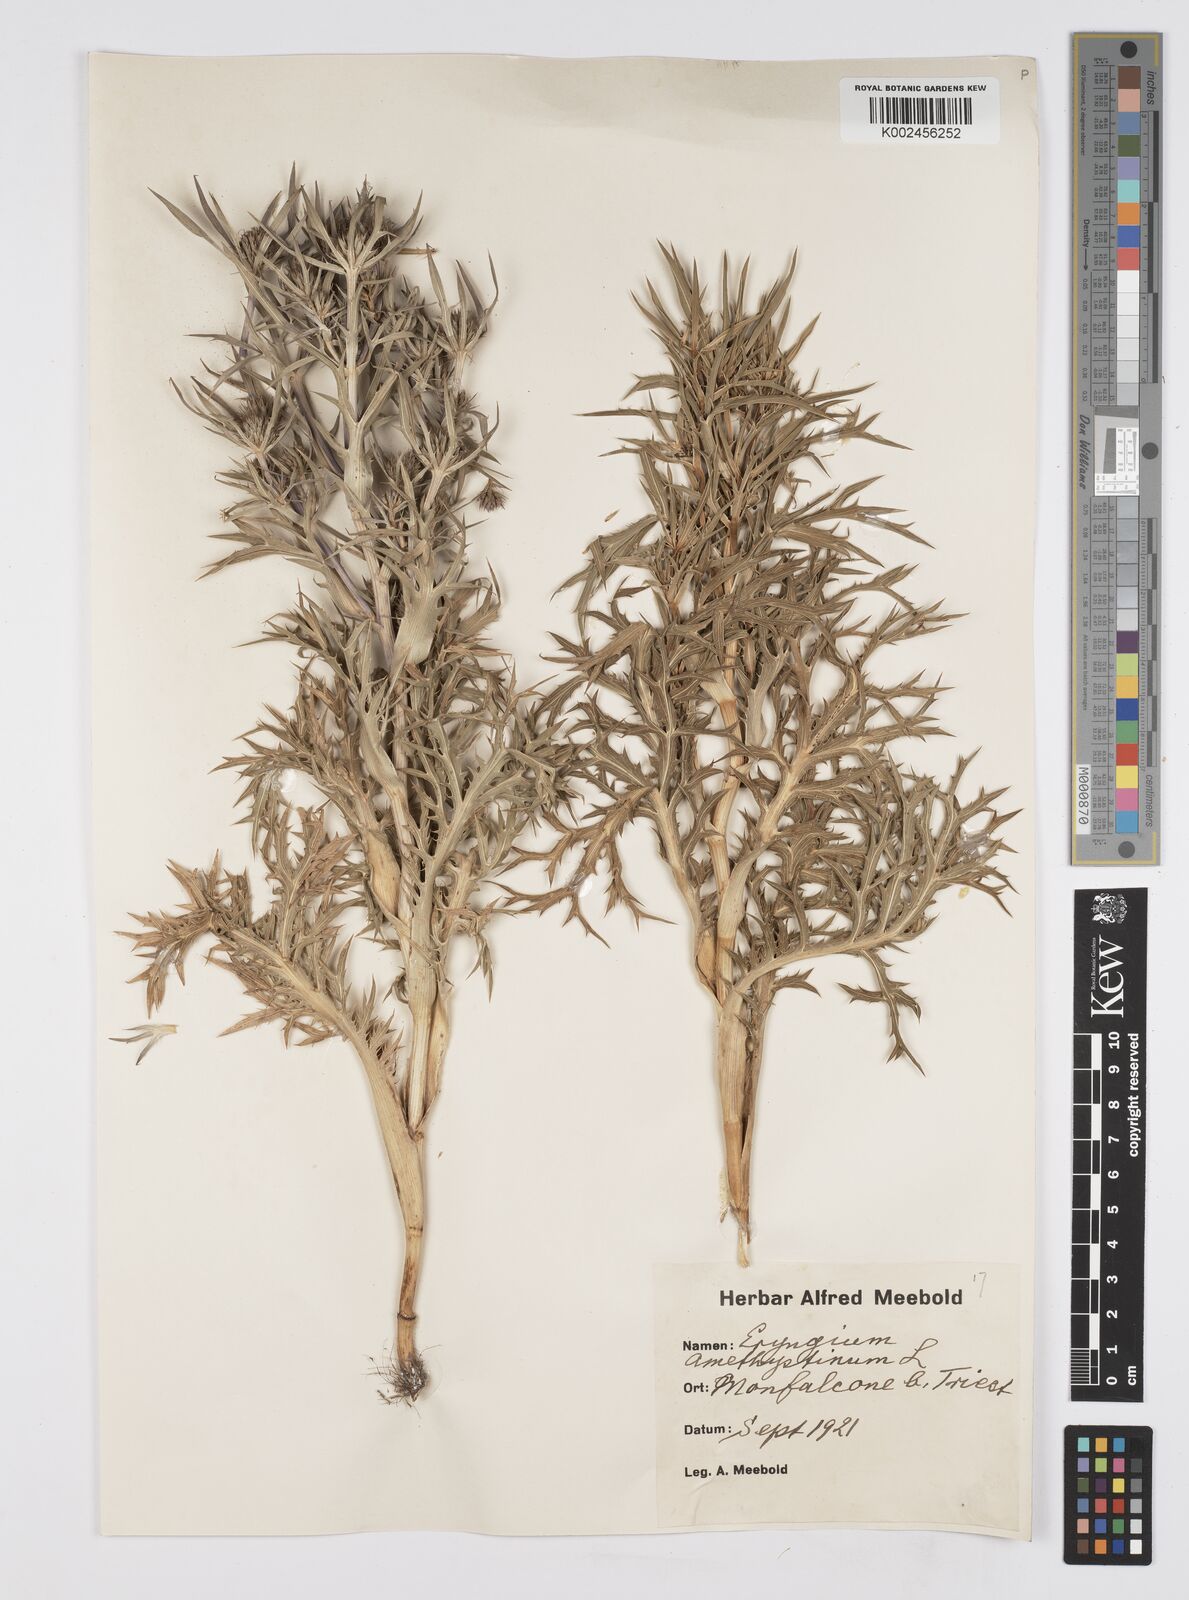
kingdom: Plantae
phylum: Tracheophyta
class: Magnoliopsida
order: Apiales
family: Apiaceae
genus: Eryngium
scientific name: Eryngium amethystinum
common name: Amethyst eryngo
